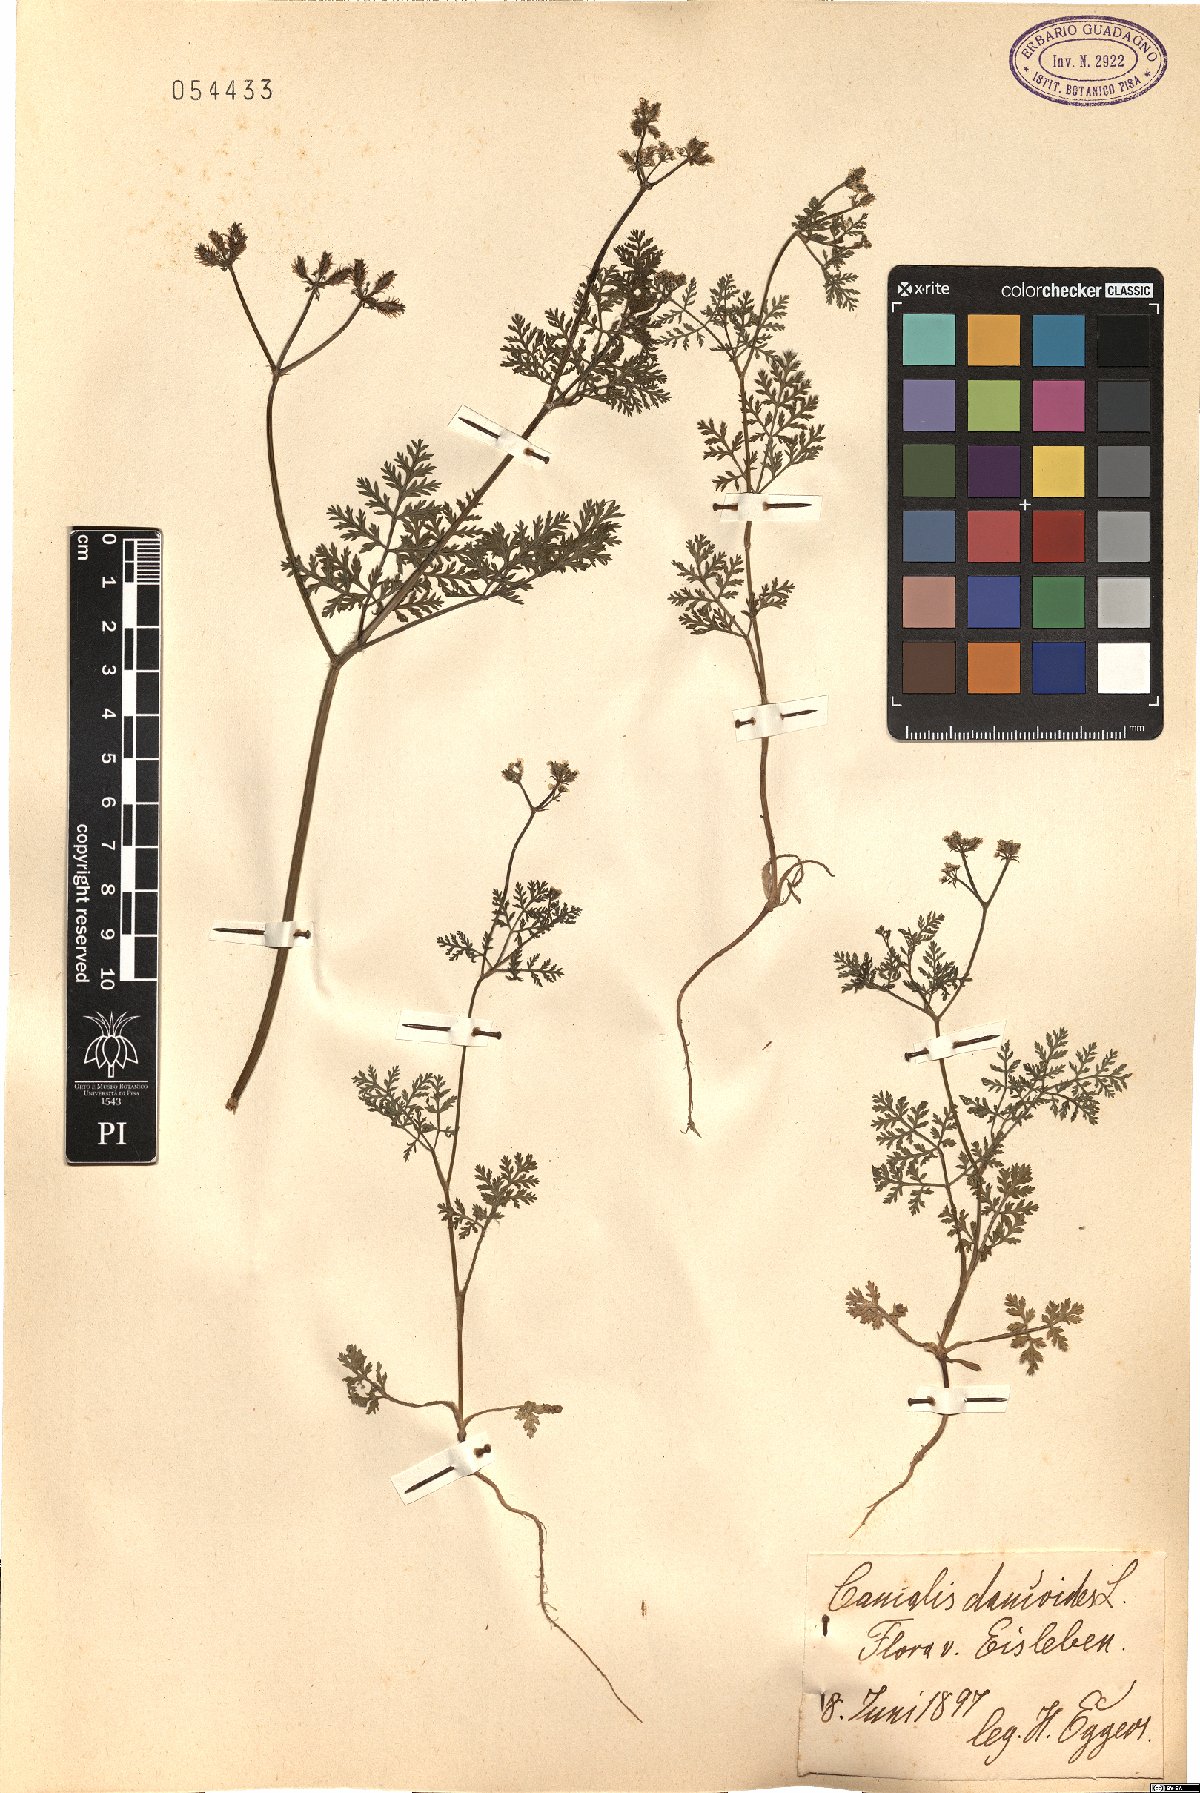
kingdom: Plantae
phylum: Tracheophyta
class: Magnoliopsida
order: Apiales
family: Apiaceae
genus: Orlaya
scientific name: Orlaya daucoides
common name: Flat-fruit orlaya
